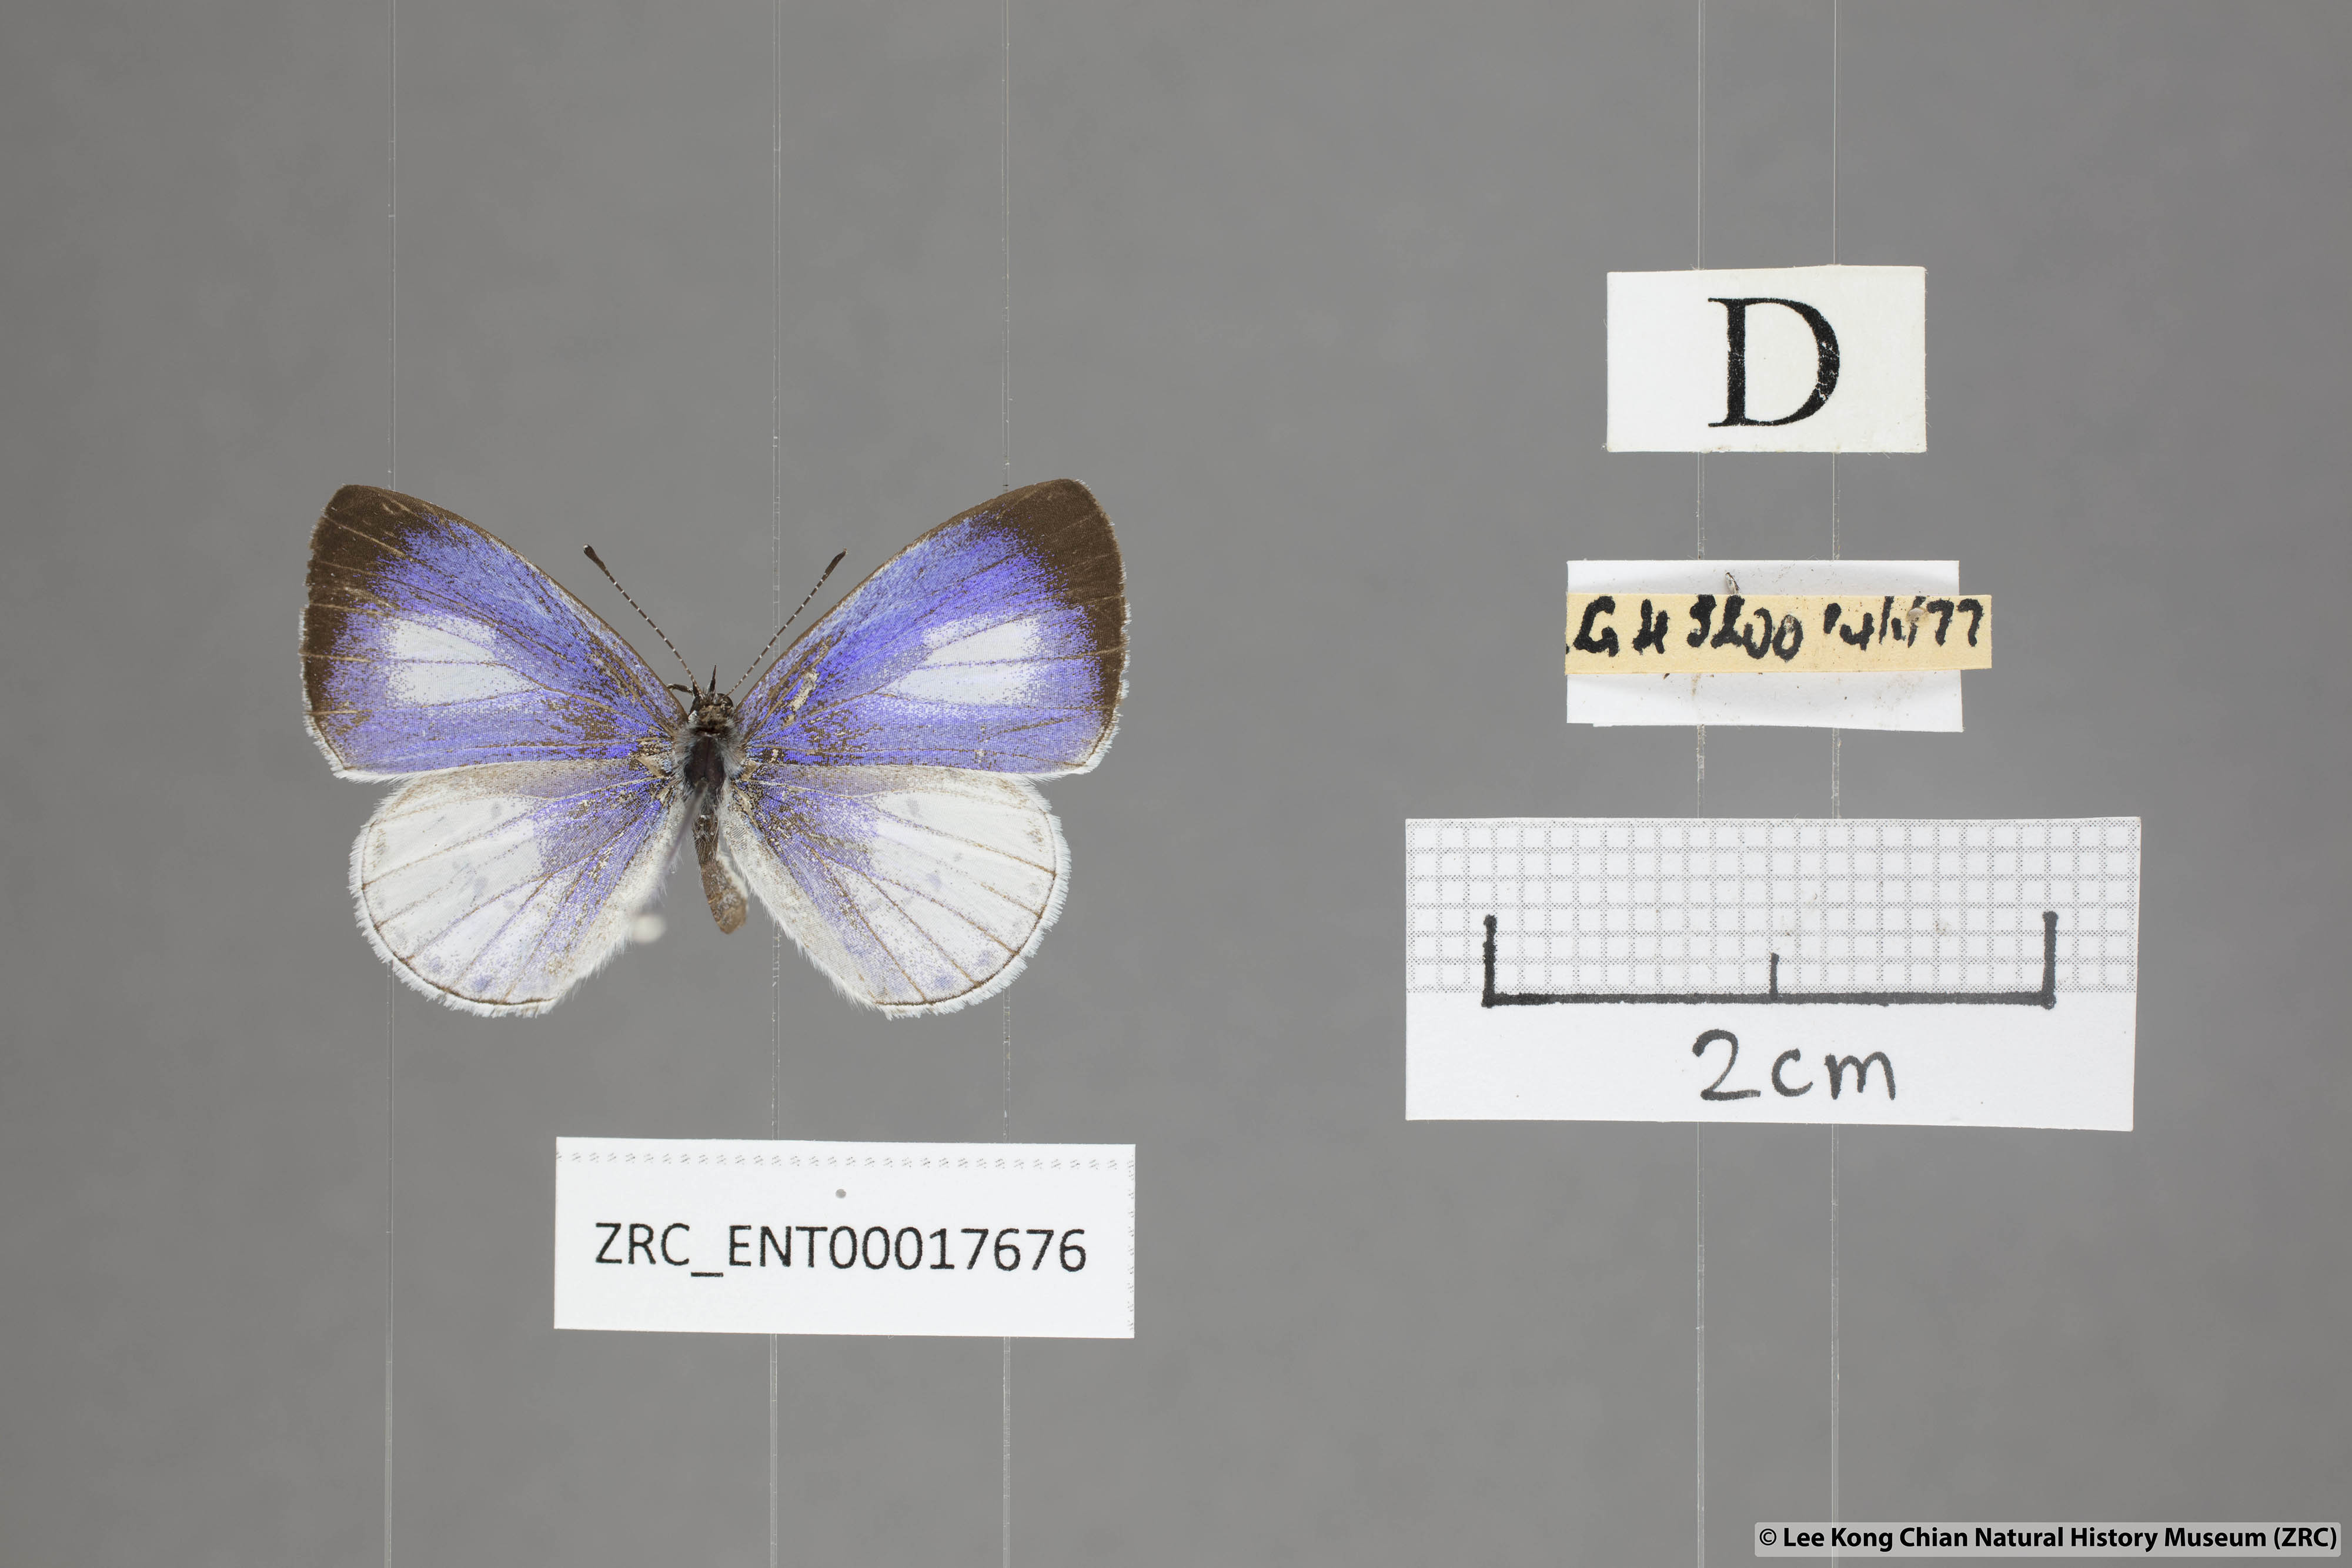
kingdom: Animalia
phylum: Arthropoda
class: Insecta
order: Lepidoptera
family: Lycaenidae
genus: Udara
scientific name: Udara albocaerulea
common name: Albocerulean
